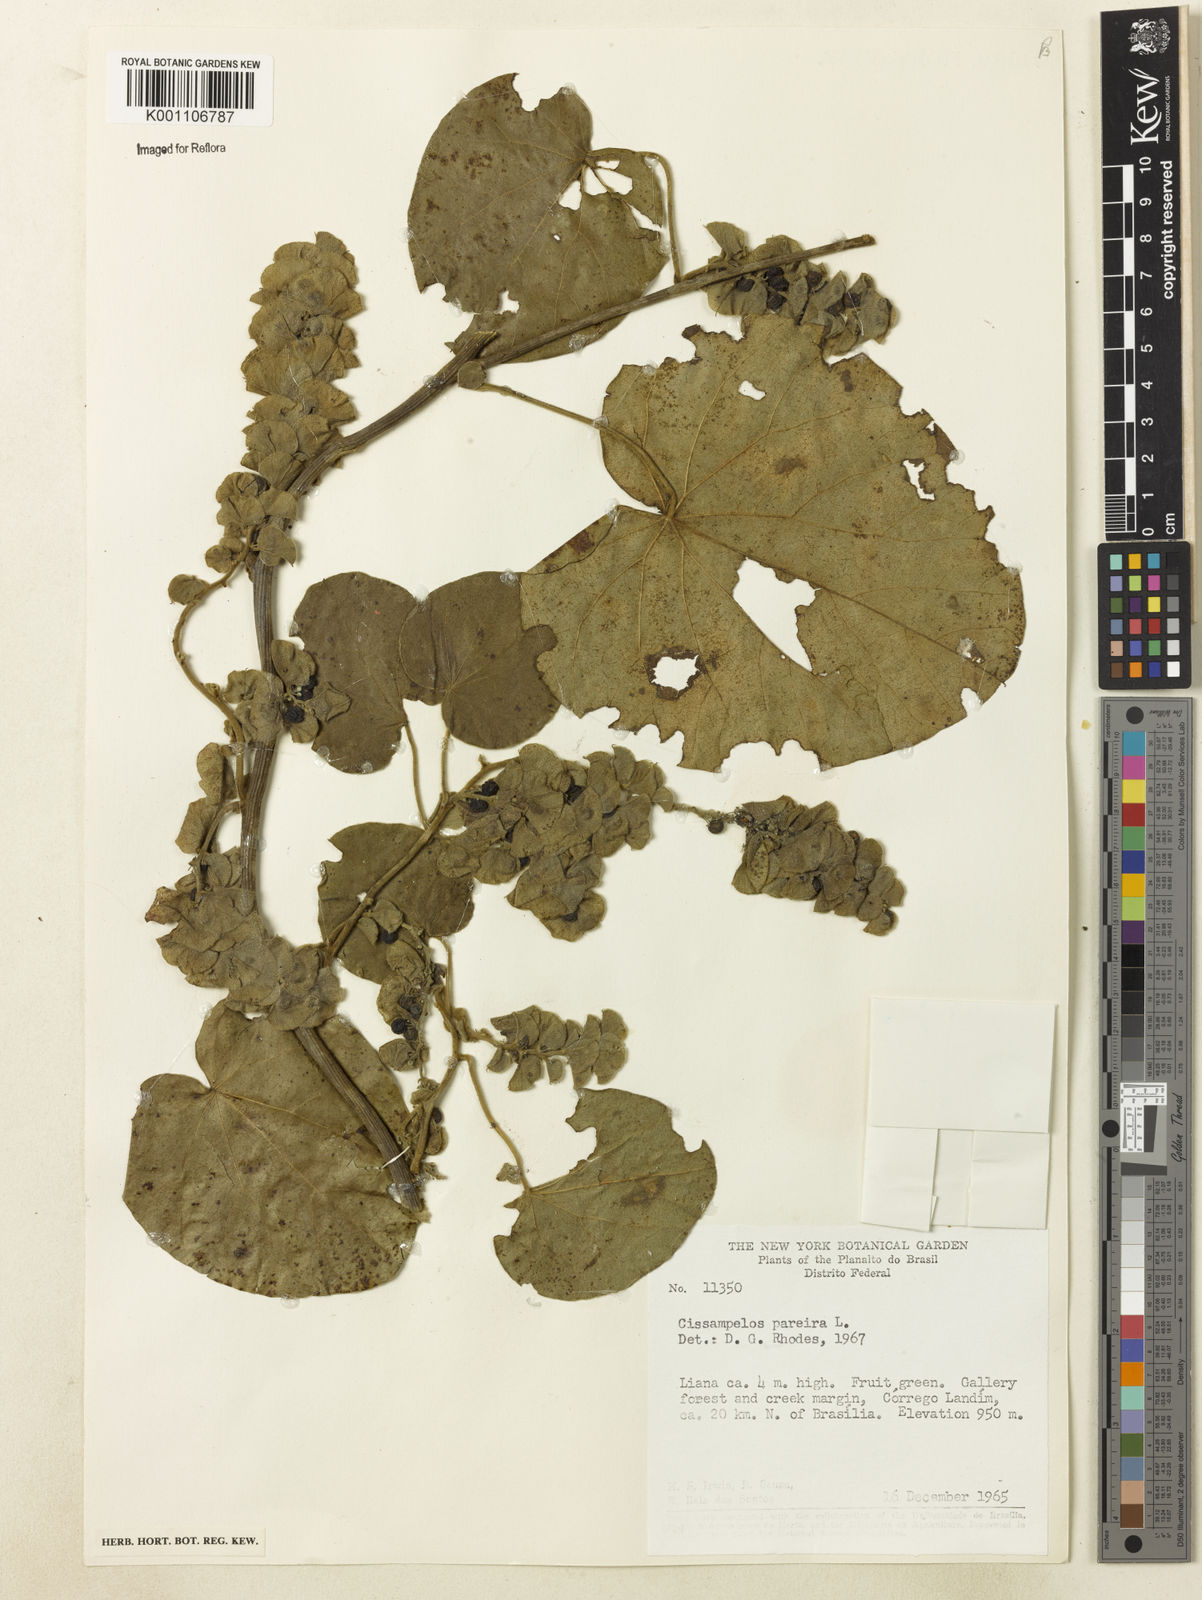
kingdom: Plantae
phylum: Tracheophyta
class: Magnoliopsida
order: Ranunculales
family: Menispermaceae
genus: Cissampelos
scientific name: Cissampelos pareira
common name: Velvetleaf
